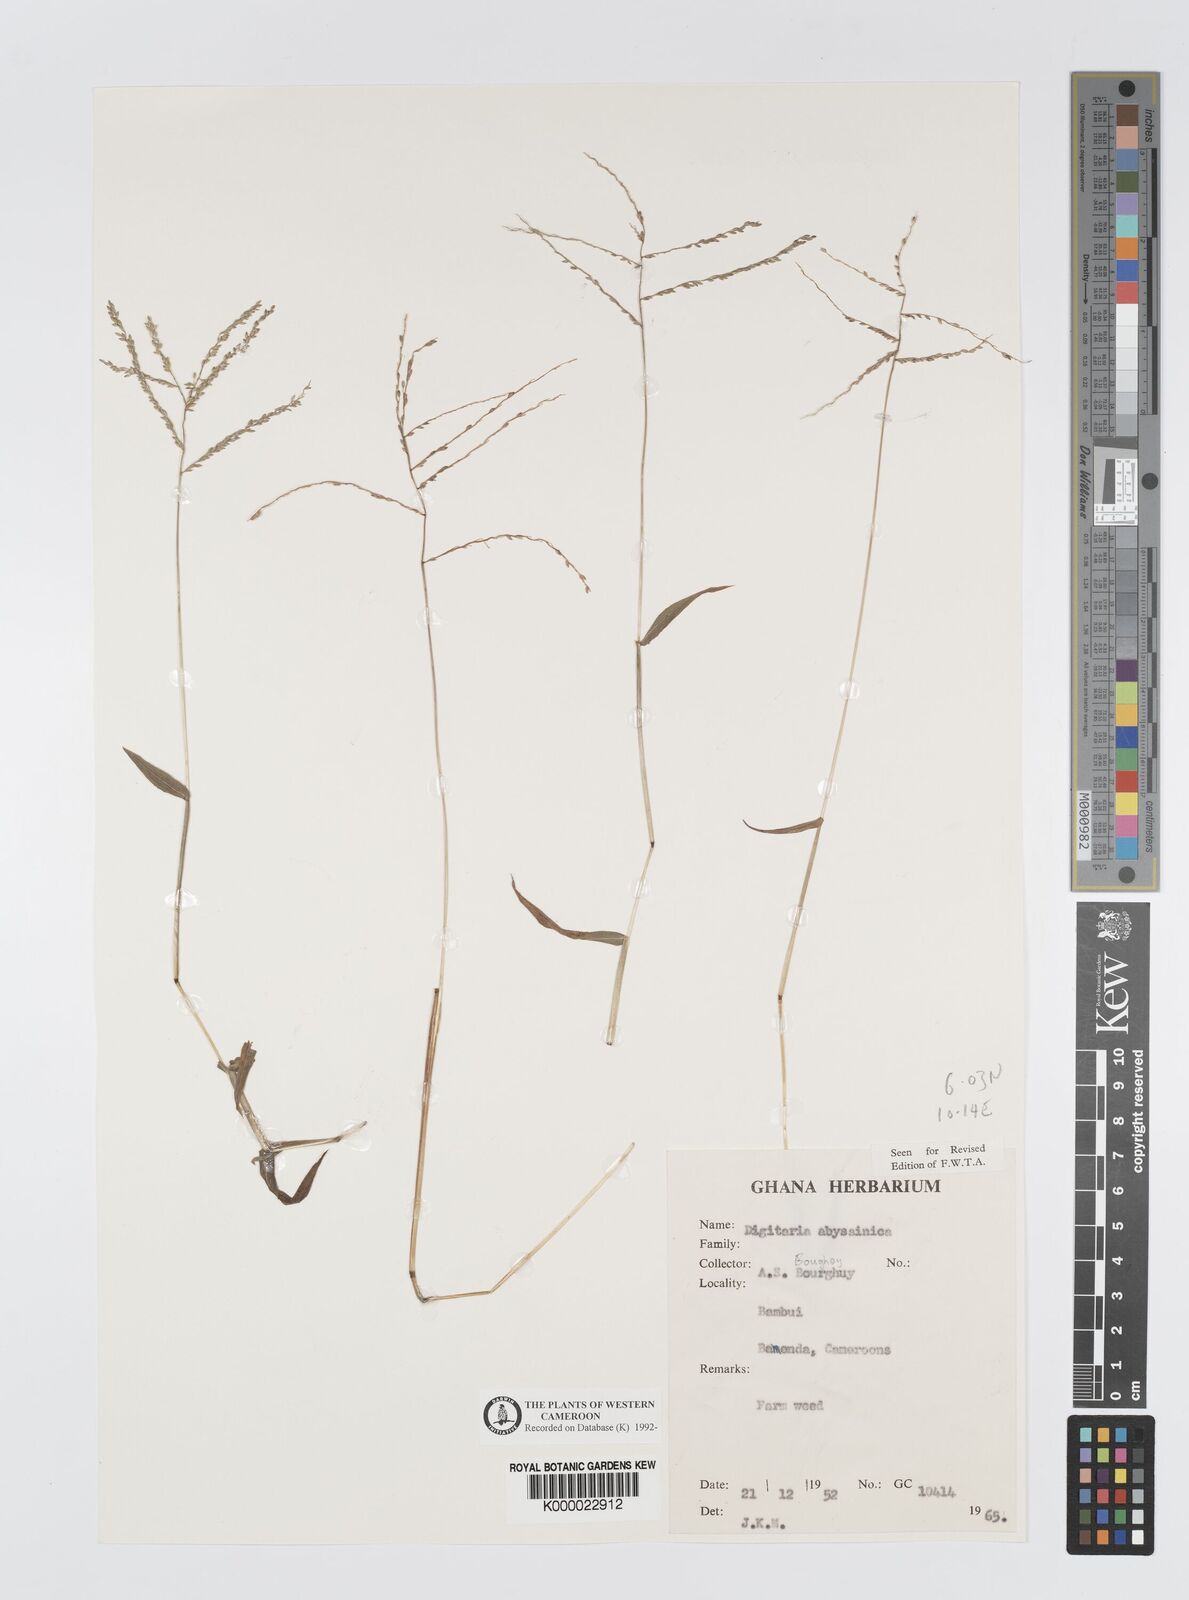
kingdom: Plantae
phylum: Tracheophyta
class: Liliopsida
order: Poales
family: Poaceae
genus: Digitaria
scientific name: Digitaria abyssinica
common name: African couchgrass
